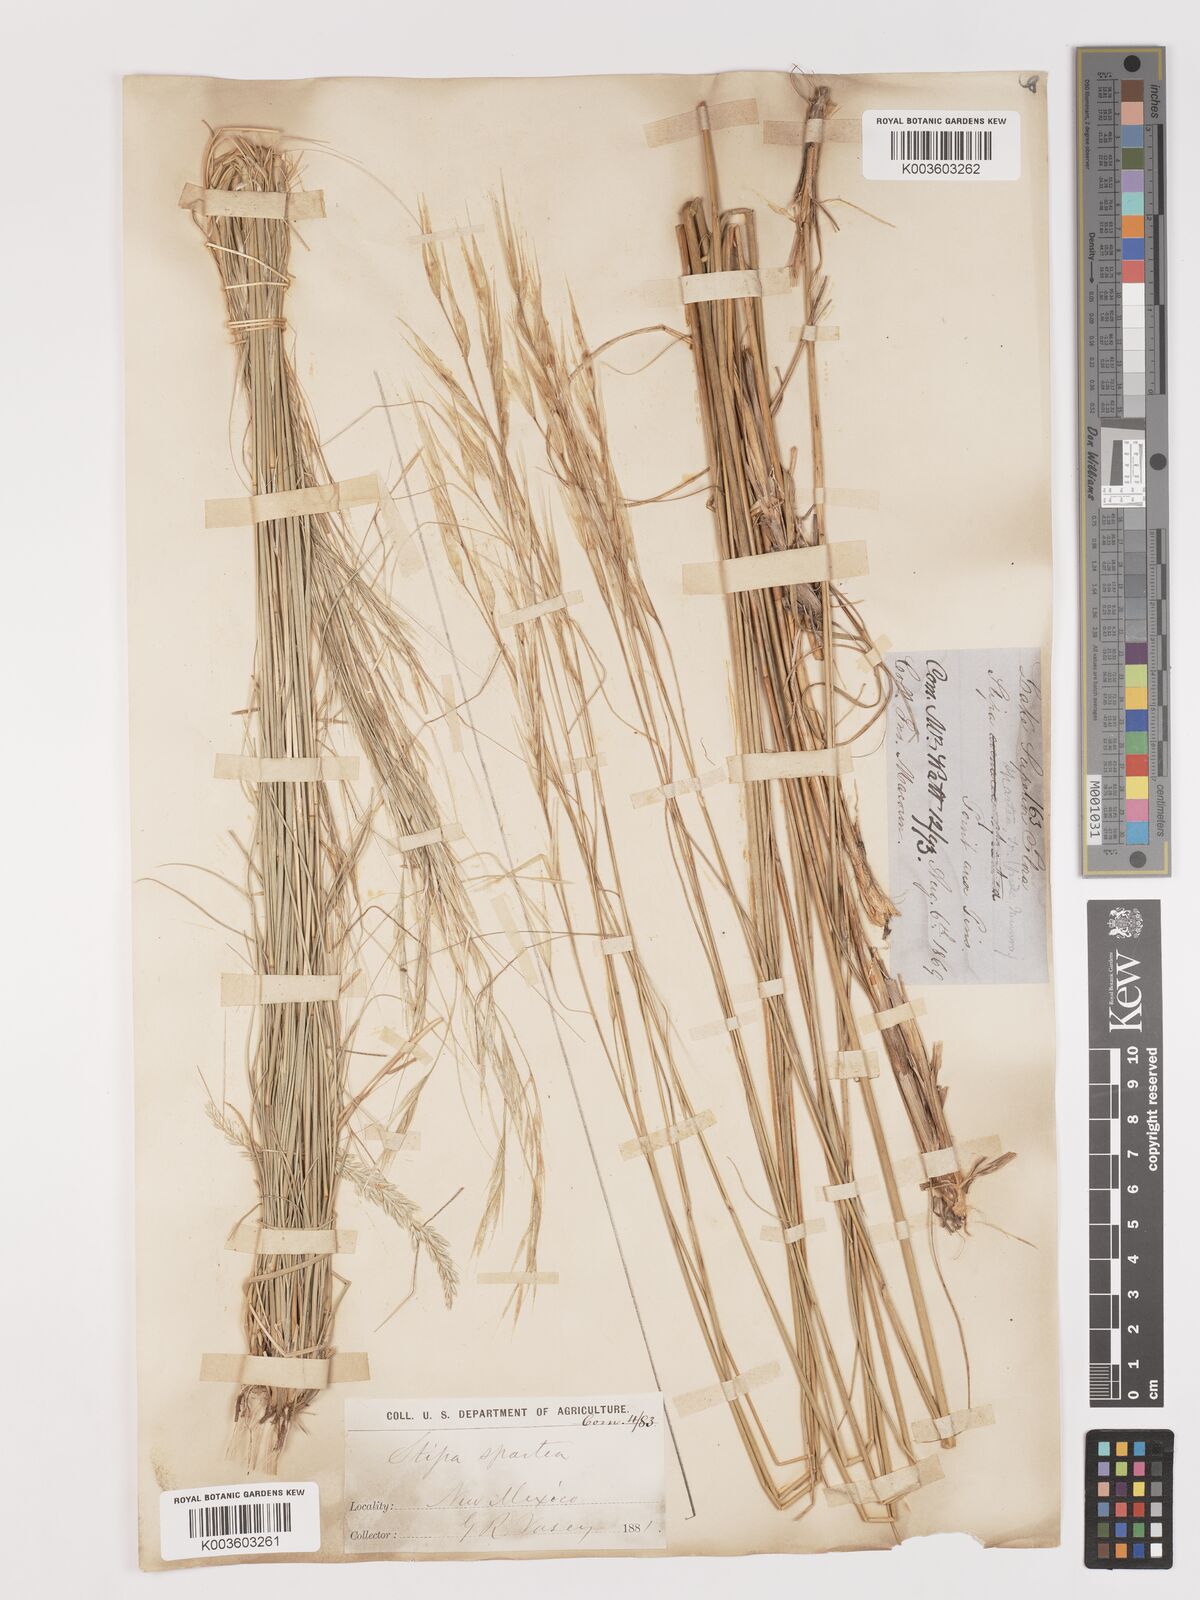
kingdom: Plantae
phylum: Tracheophyta
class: Liliopsida
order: Poales
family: Poaceae
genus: Hesperostipa
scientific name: Hesperostipa spartea
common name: Porcupine grass
